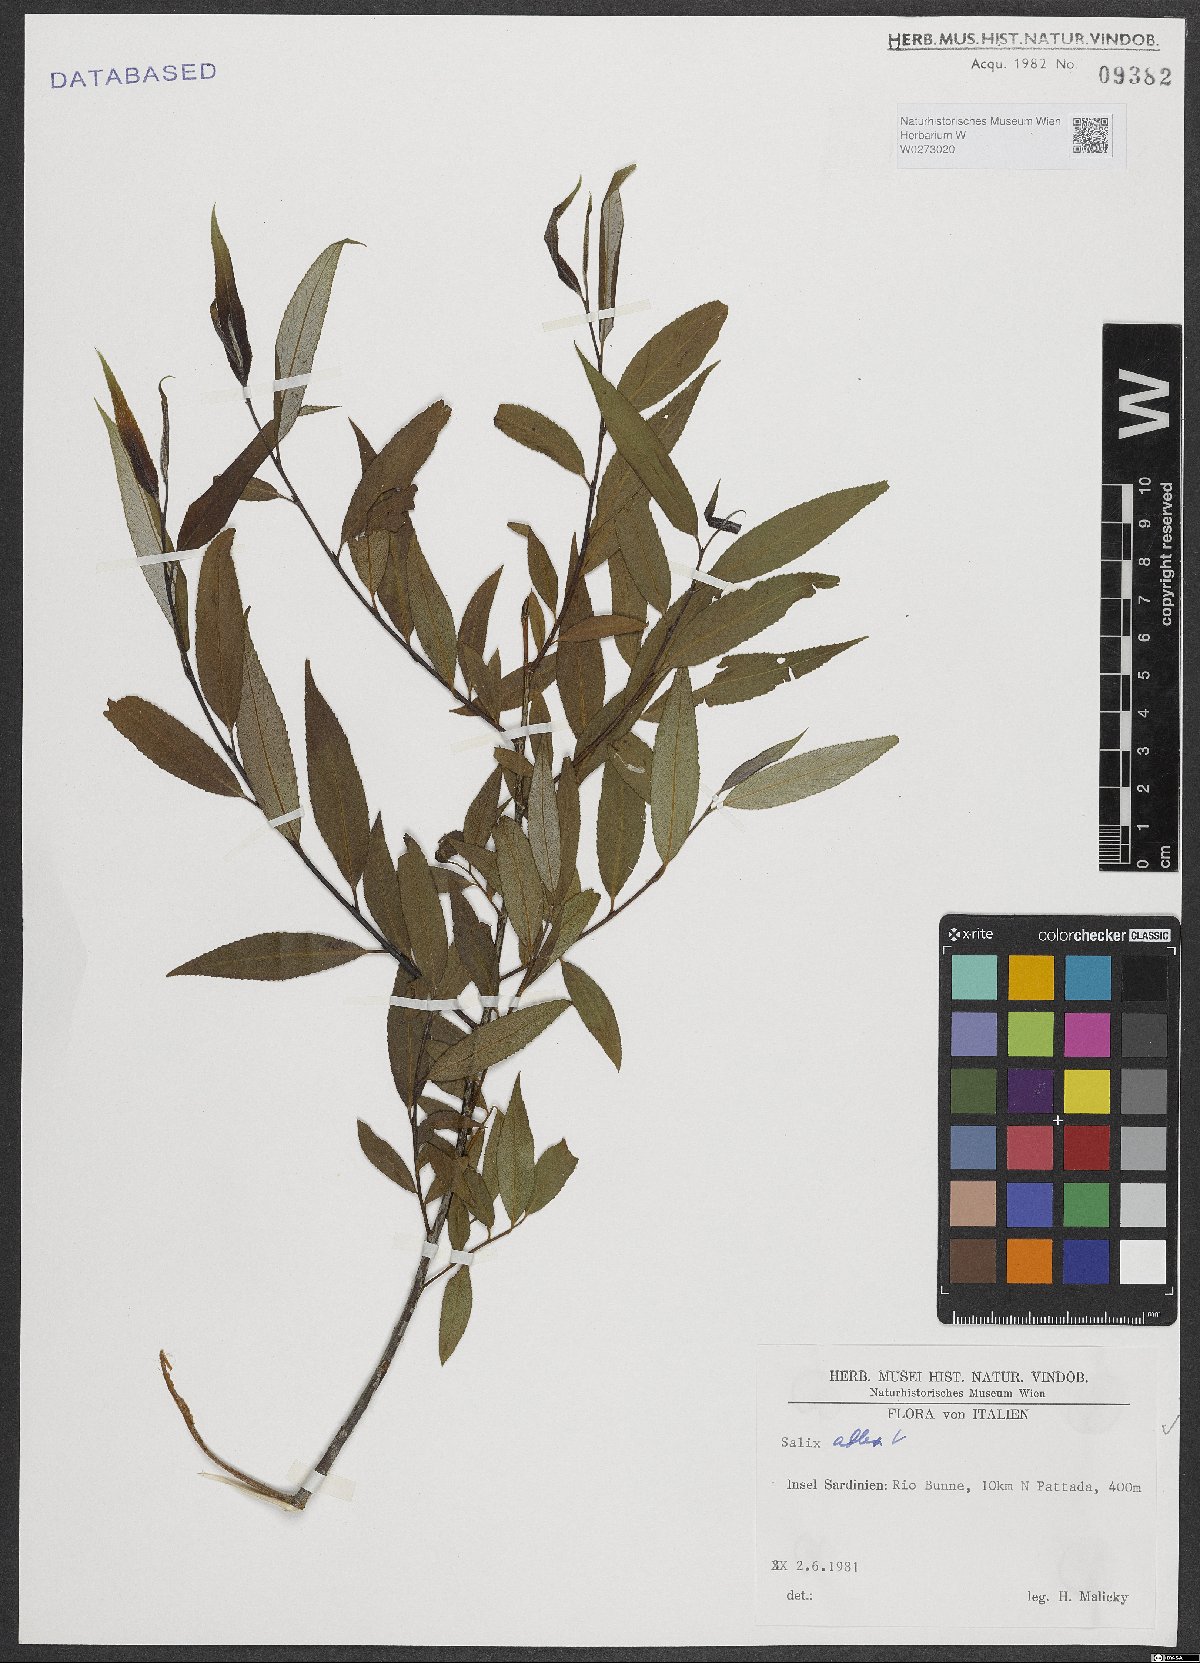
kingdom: Plantae
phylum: Tracheophyta
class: Magnoliopsida
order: Malpighiales
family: Salicaceae
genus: Salix
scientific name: Salix alba
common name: White willow
